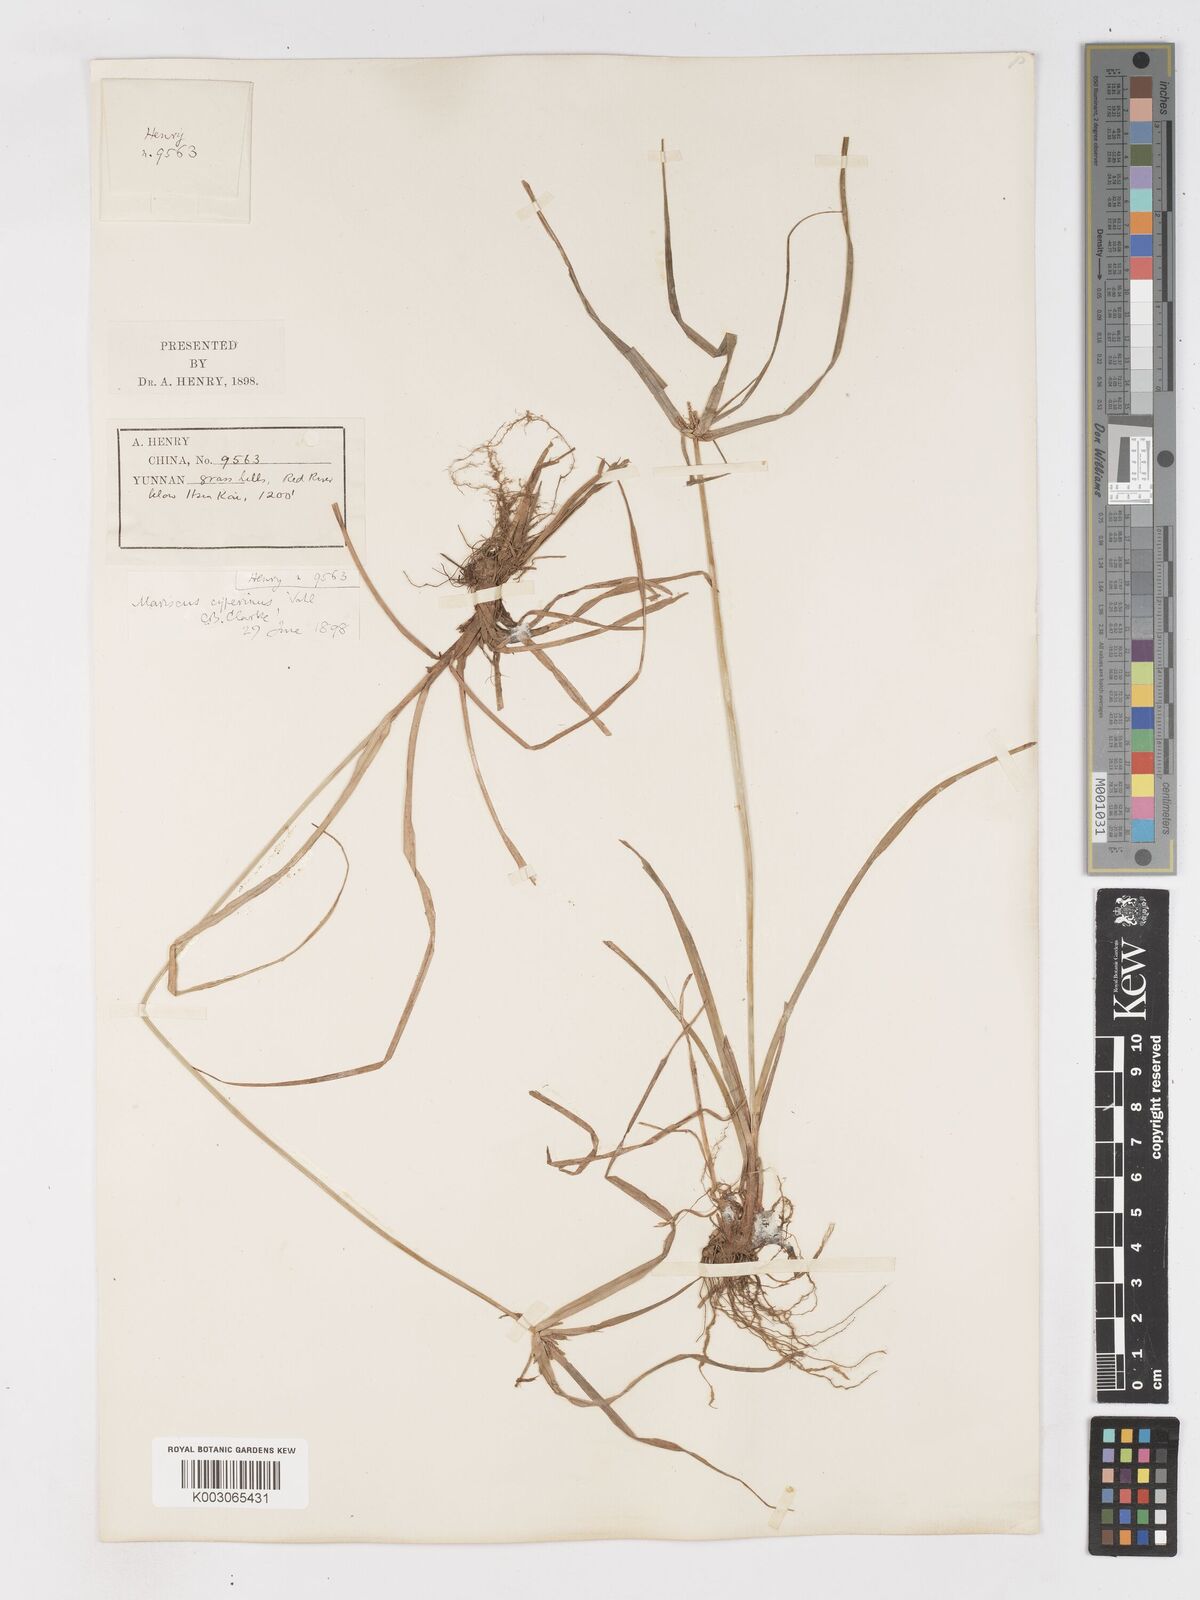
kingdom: Plantae
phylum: Tracheophyta
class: Liliopsida
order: Poales
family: Cyperaceae
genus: Cyperus
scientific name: Cyperus cyperinus
